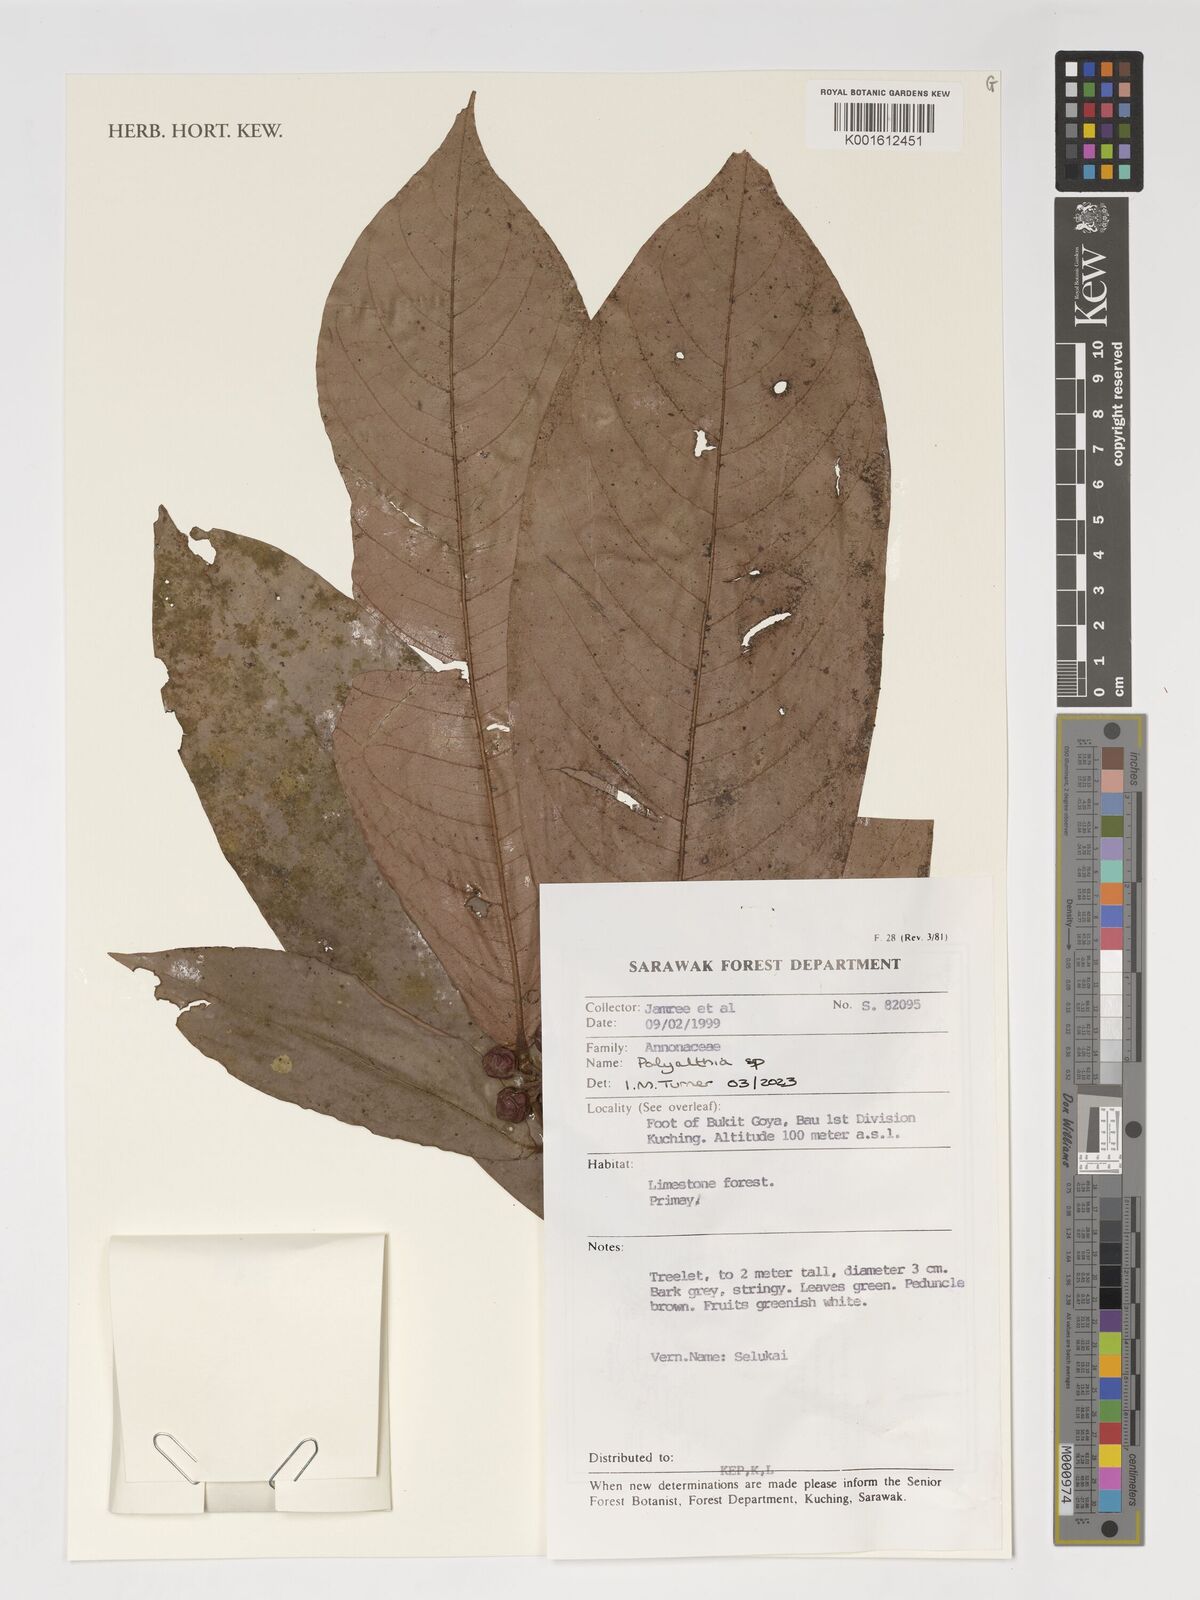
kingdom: Plantae
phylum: Tracheophyta
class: Magnoliopsida
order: Magnoliales
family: Annonaceae
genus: Polyalthia
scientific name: Polyalthia
